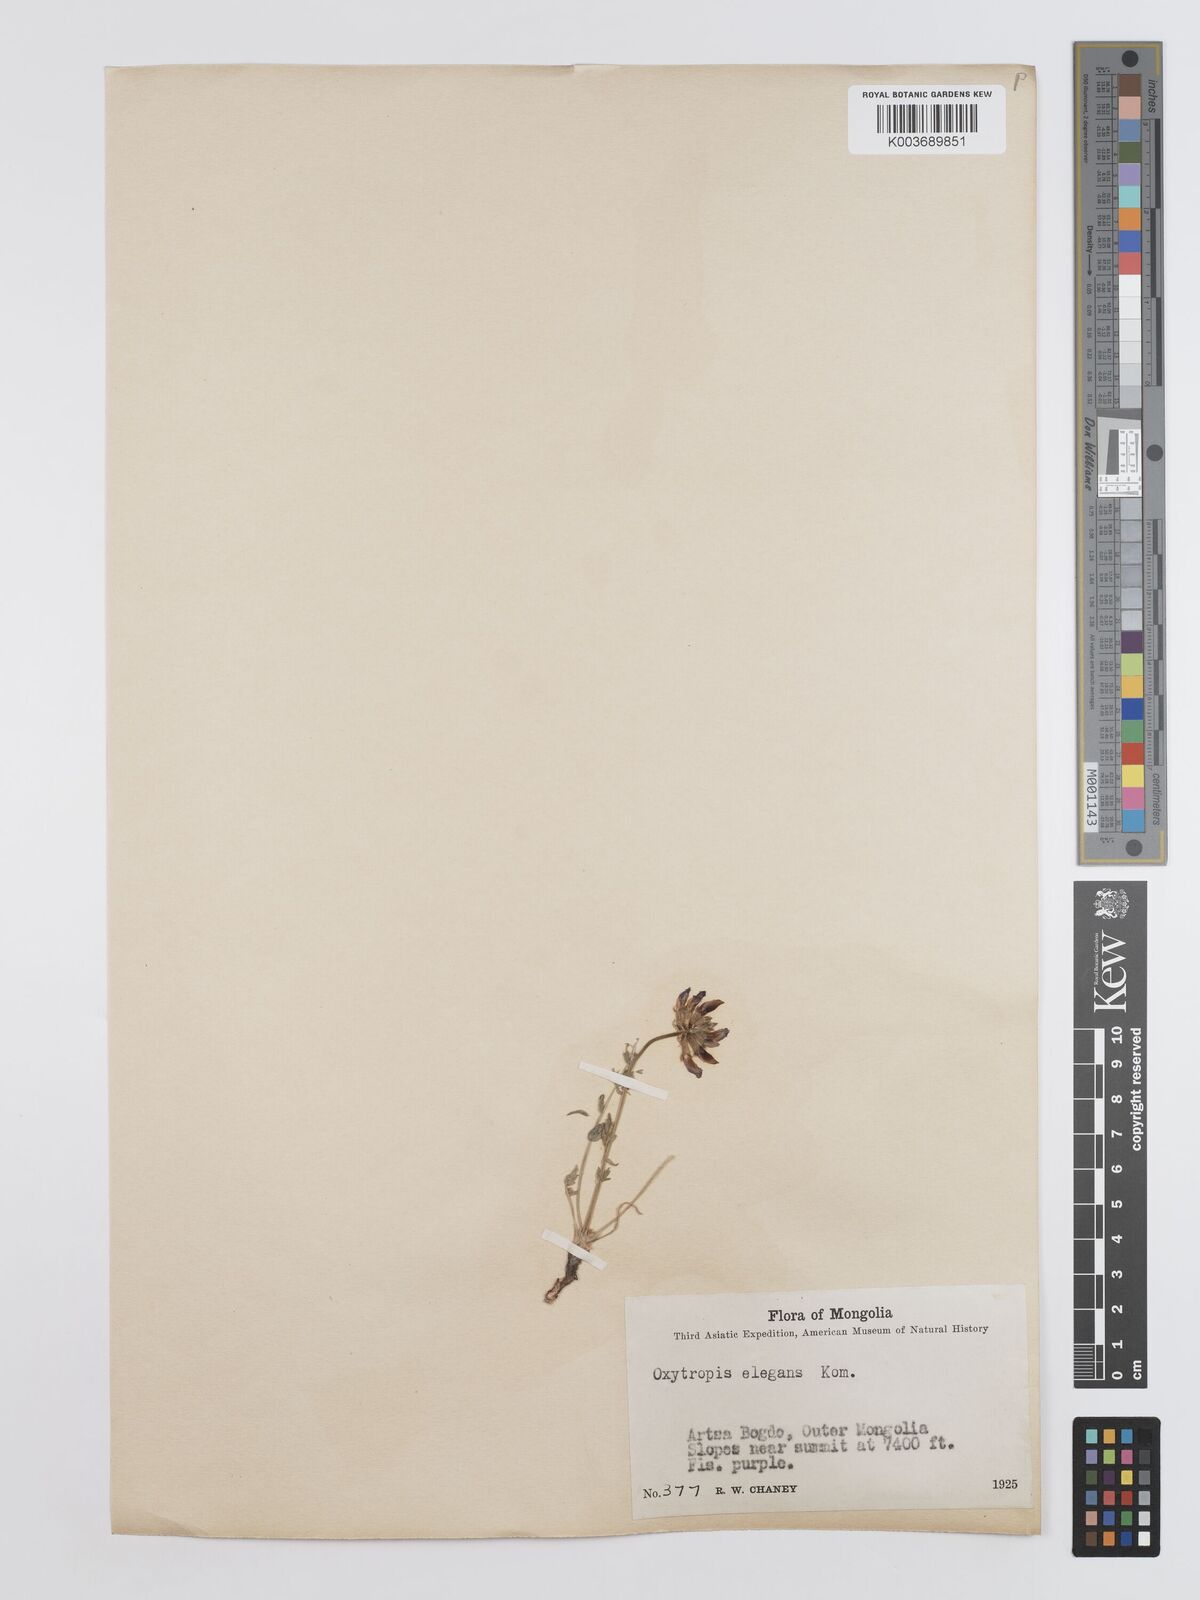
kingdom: Plantae
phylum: Tracheophyta
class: Magnoliopsida
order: Fabales
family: Fabaceae
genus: Oxytropis
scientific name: Oxytropis lasiopoda
